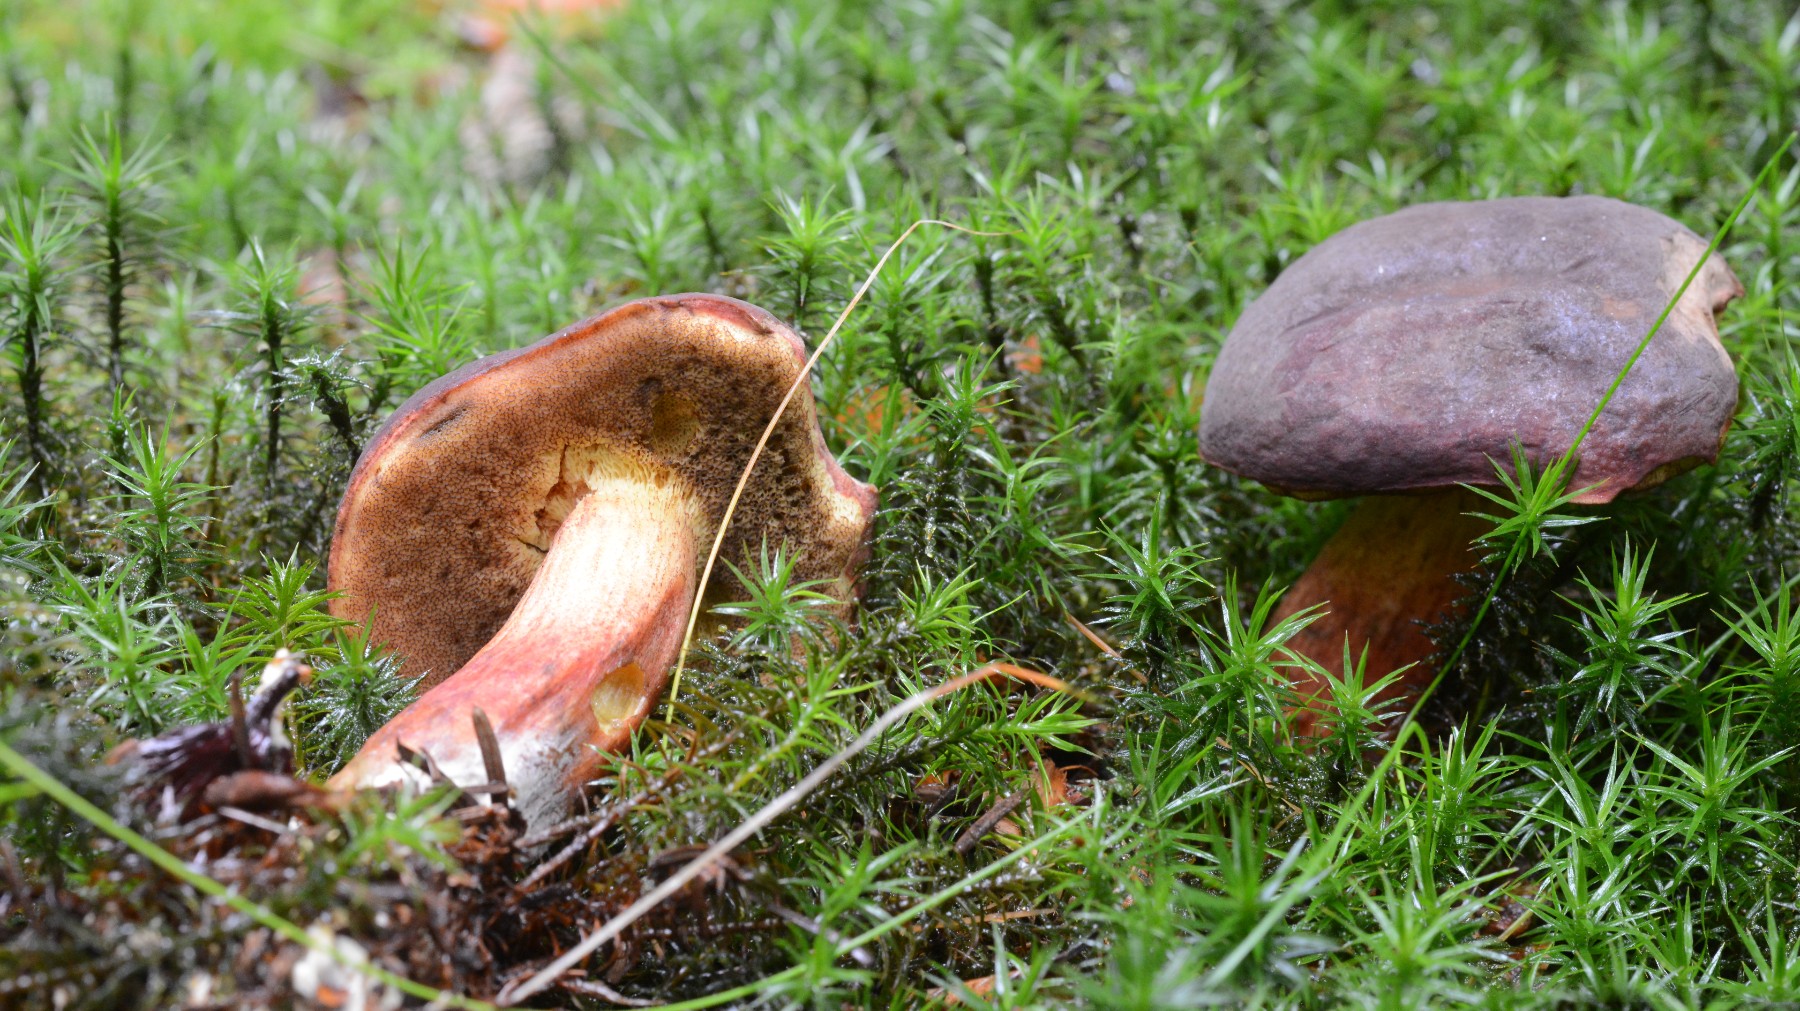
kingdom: Fungi
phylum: Basidiomycota
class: Agaricomycetes
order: Boletales
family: Boletaceae
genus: Xerocomellus
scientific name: Xerocomellus pruinatus
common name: dugget rørhat
